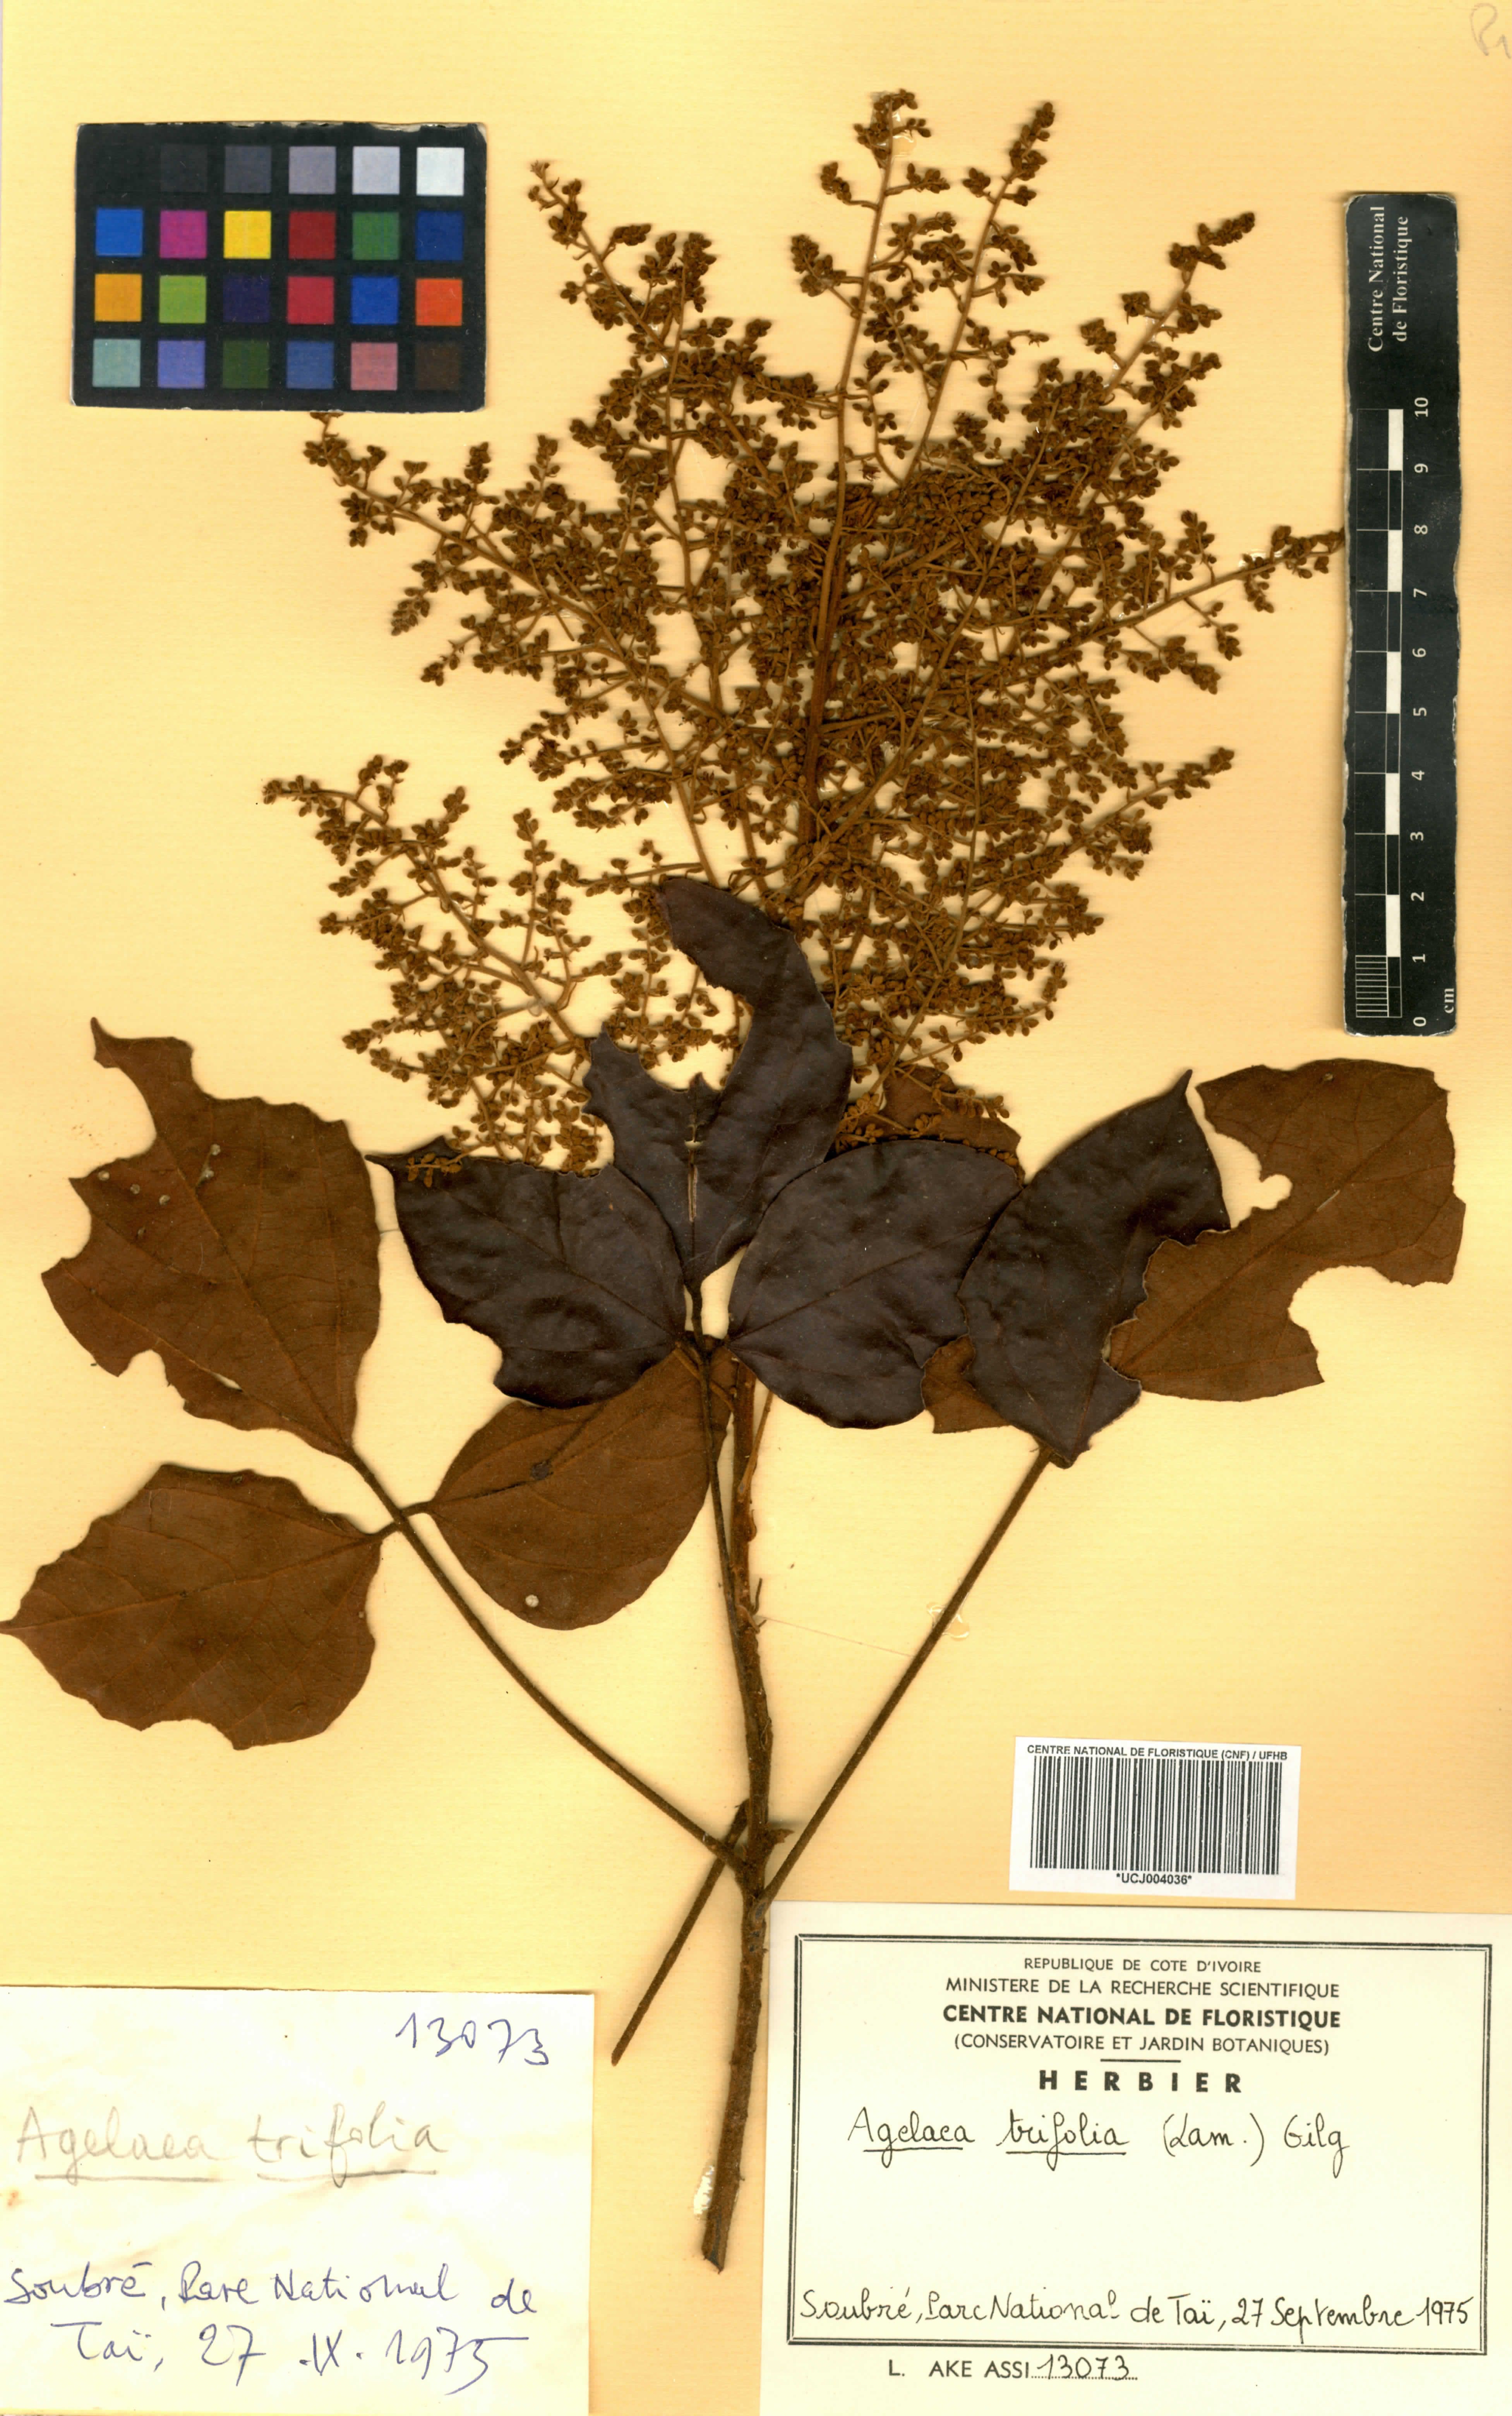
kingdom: Plantae
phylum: Tracheophyta
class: Magnoliopsida
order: Oxalidales
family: Connaraceae
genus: Agelaea
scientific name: Agelaea pentagyna
